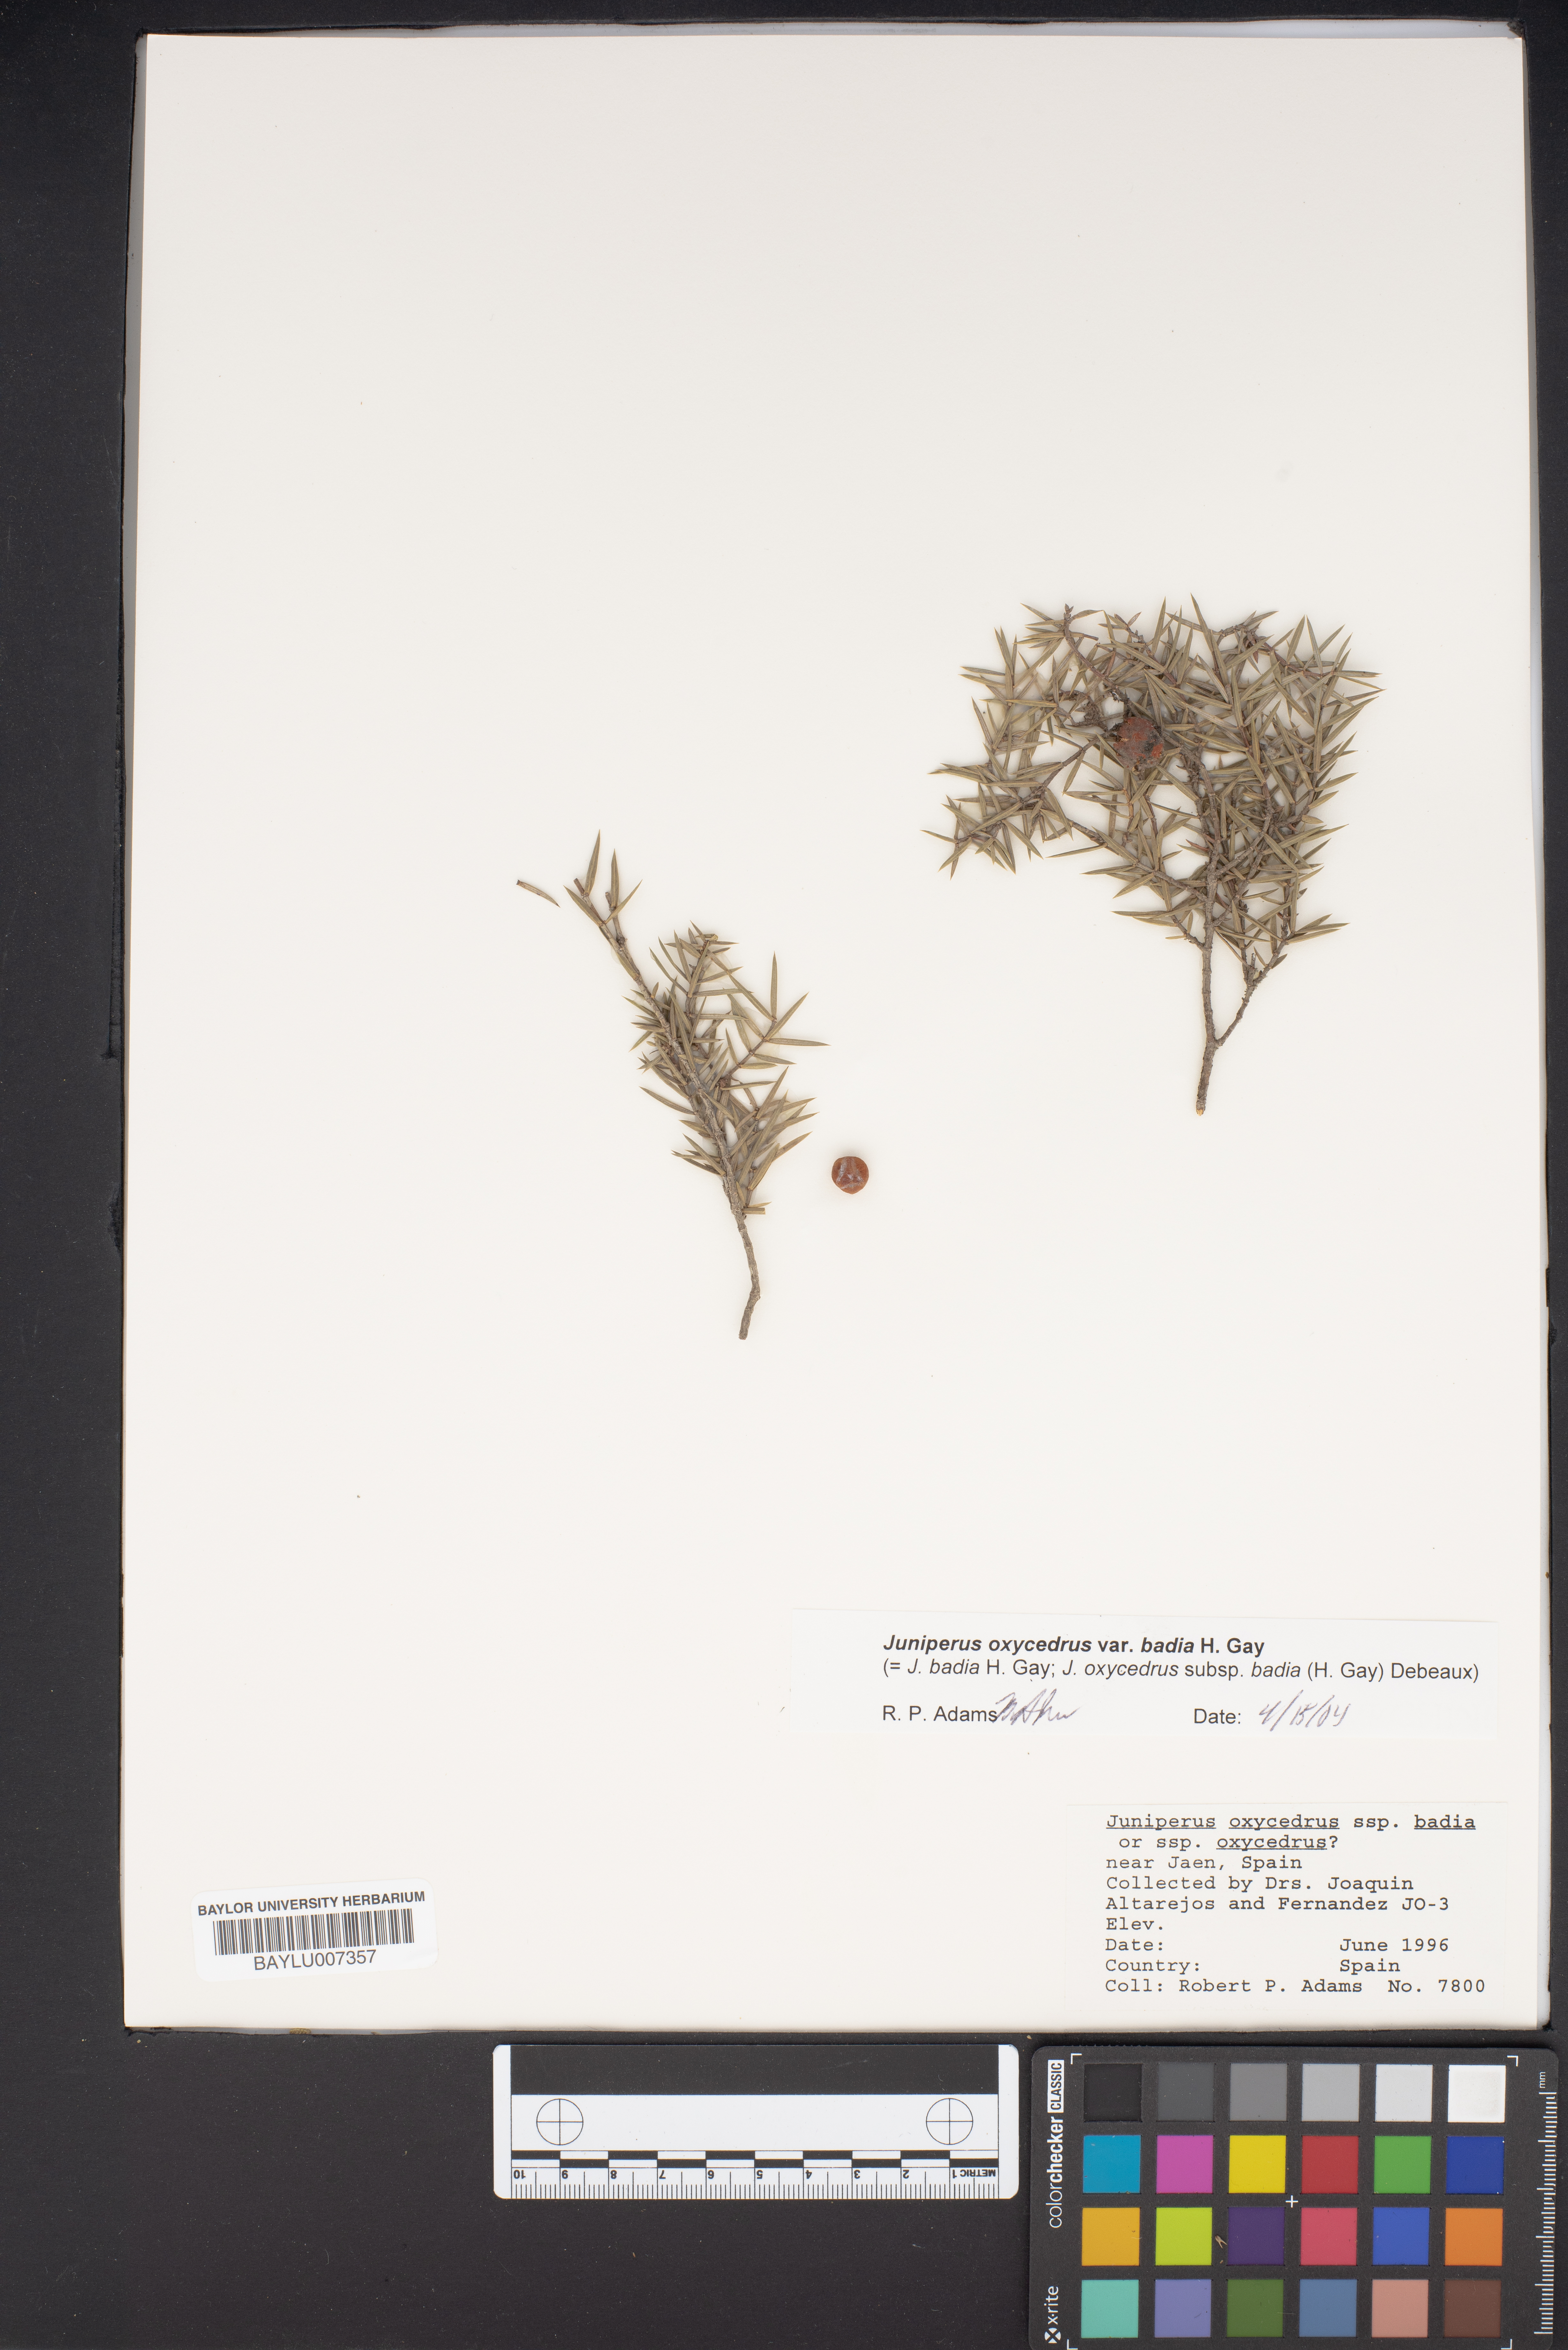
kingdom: Plantae
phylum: Tracheophyta
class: Pinopsida
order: Pinales
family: Cupressaceae
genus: Juniperus
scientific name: Juniperus oxycedrus
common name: Prickly juniper
